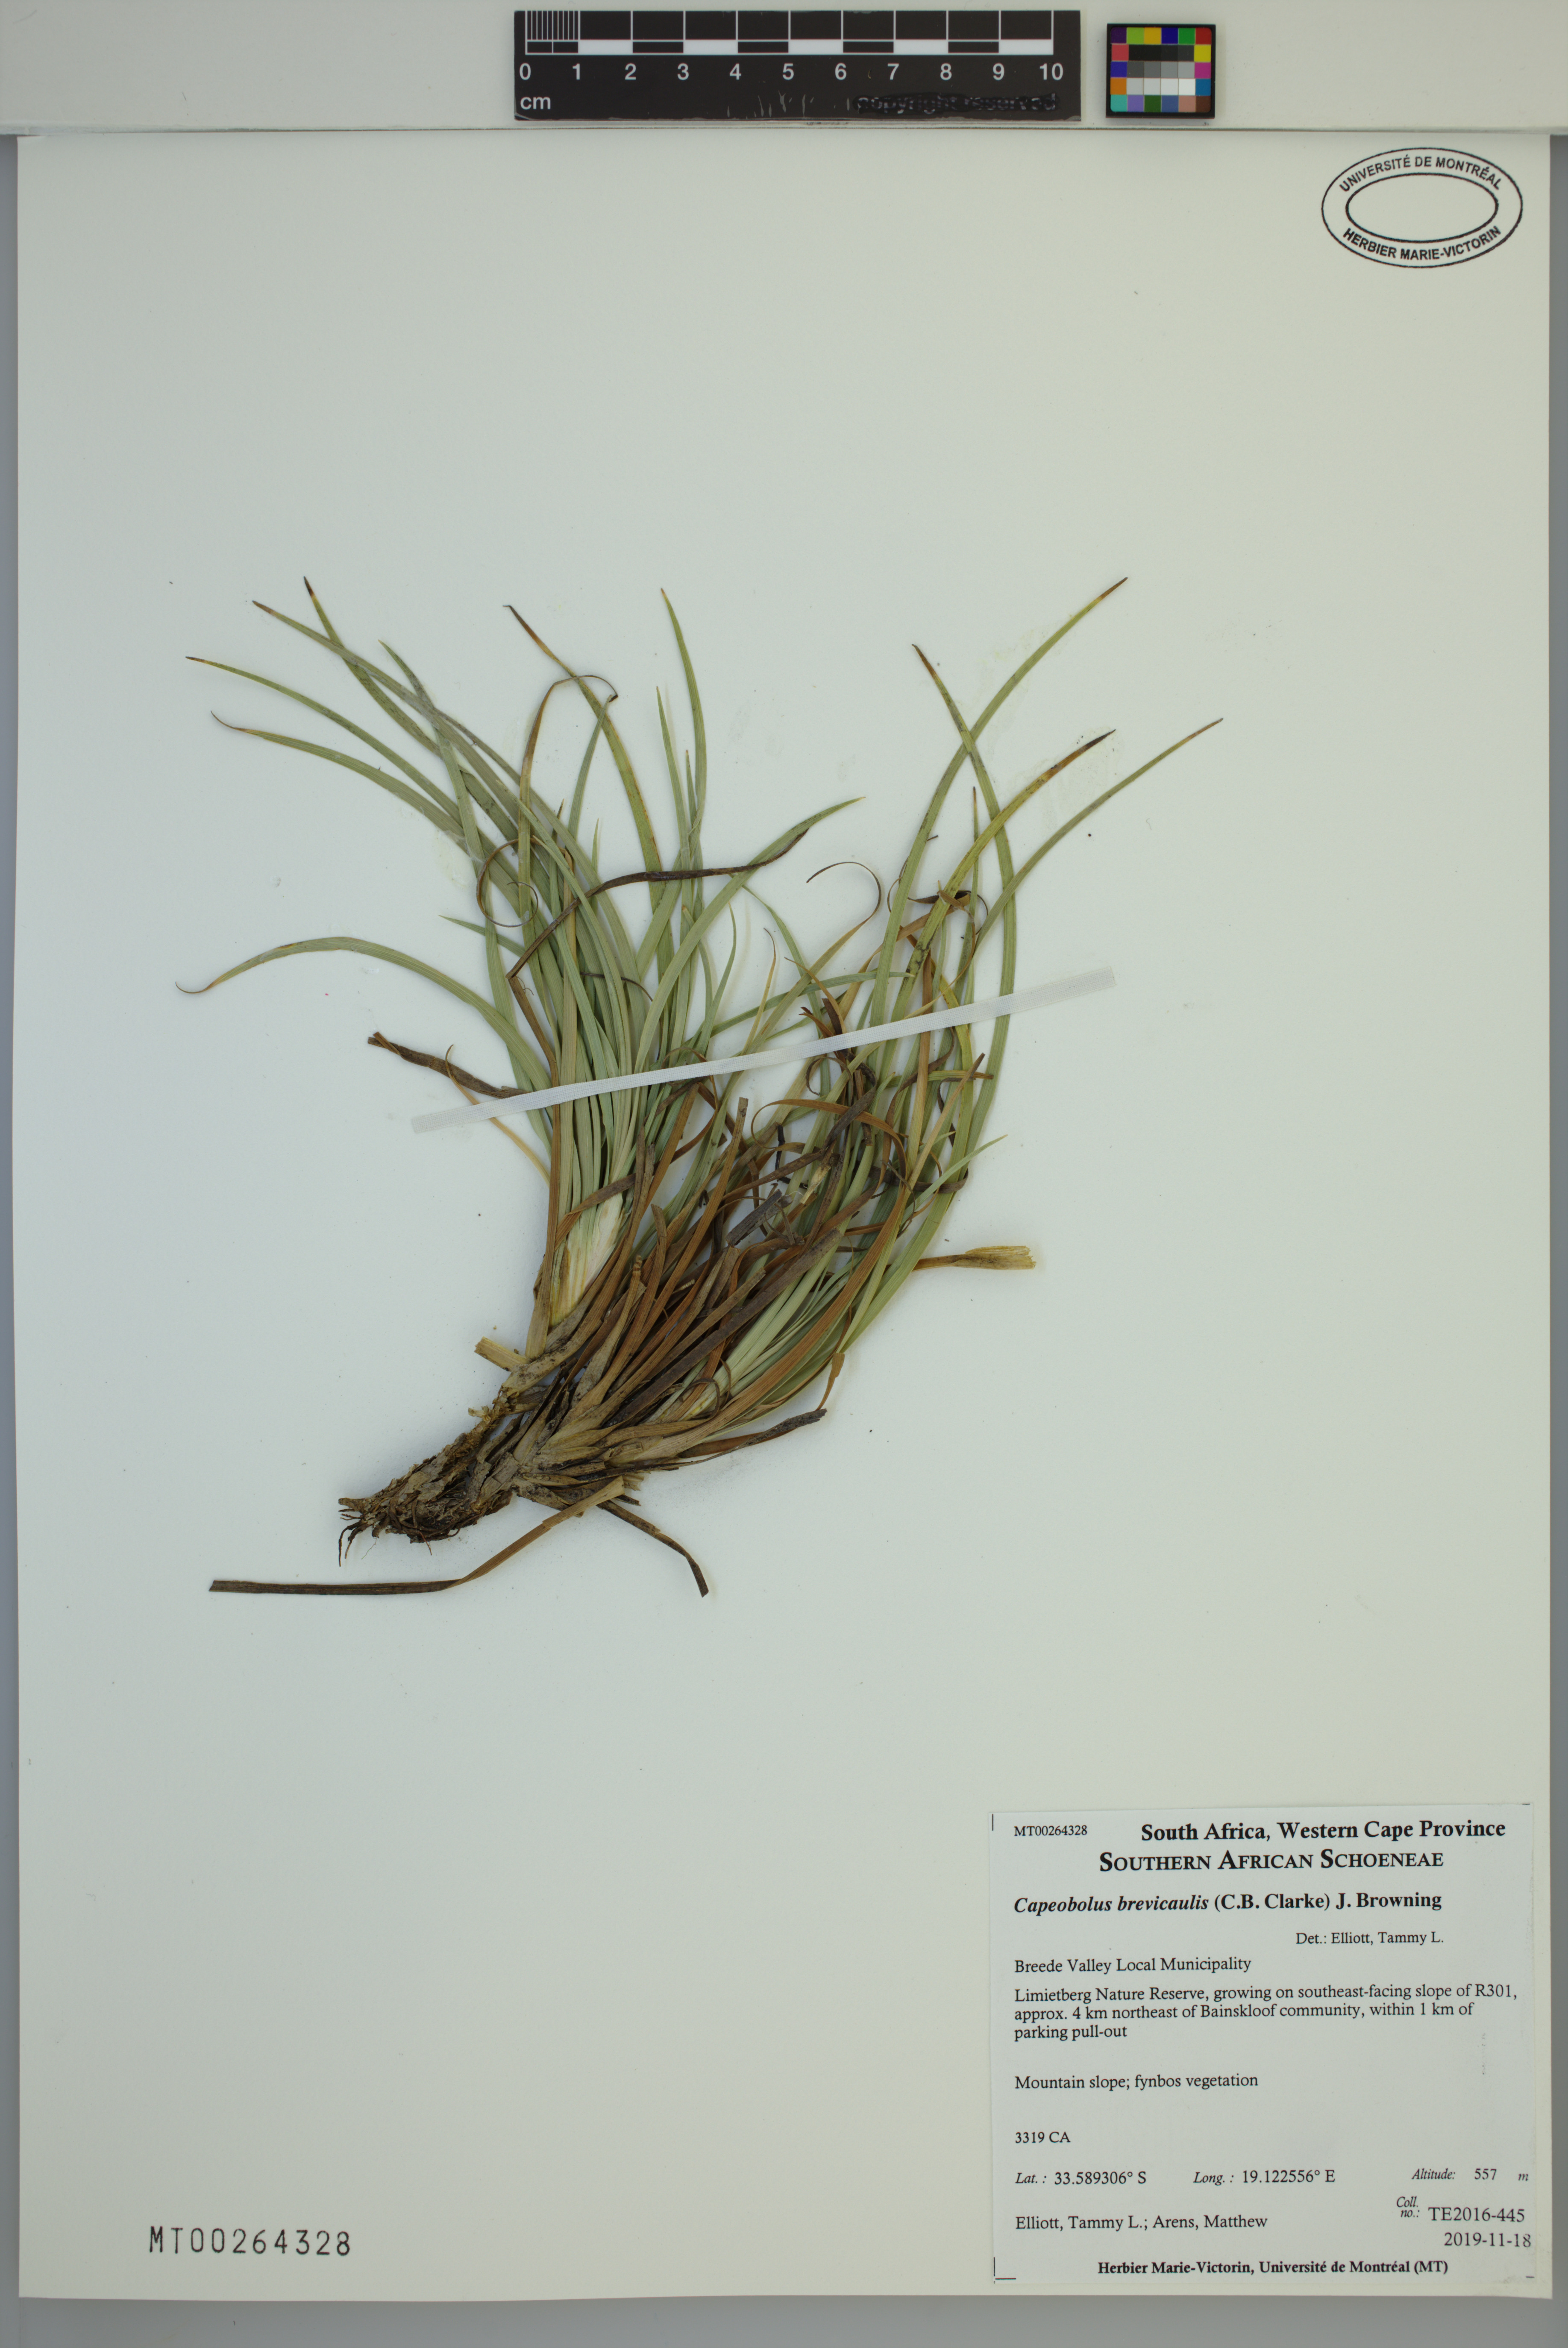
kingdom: Plantae
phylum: Tracheophyta
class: Liliopsida
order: Poales
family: Cyperaceae
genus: Capeobolus
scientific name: Capeobolus brevicaulis
